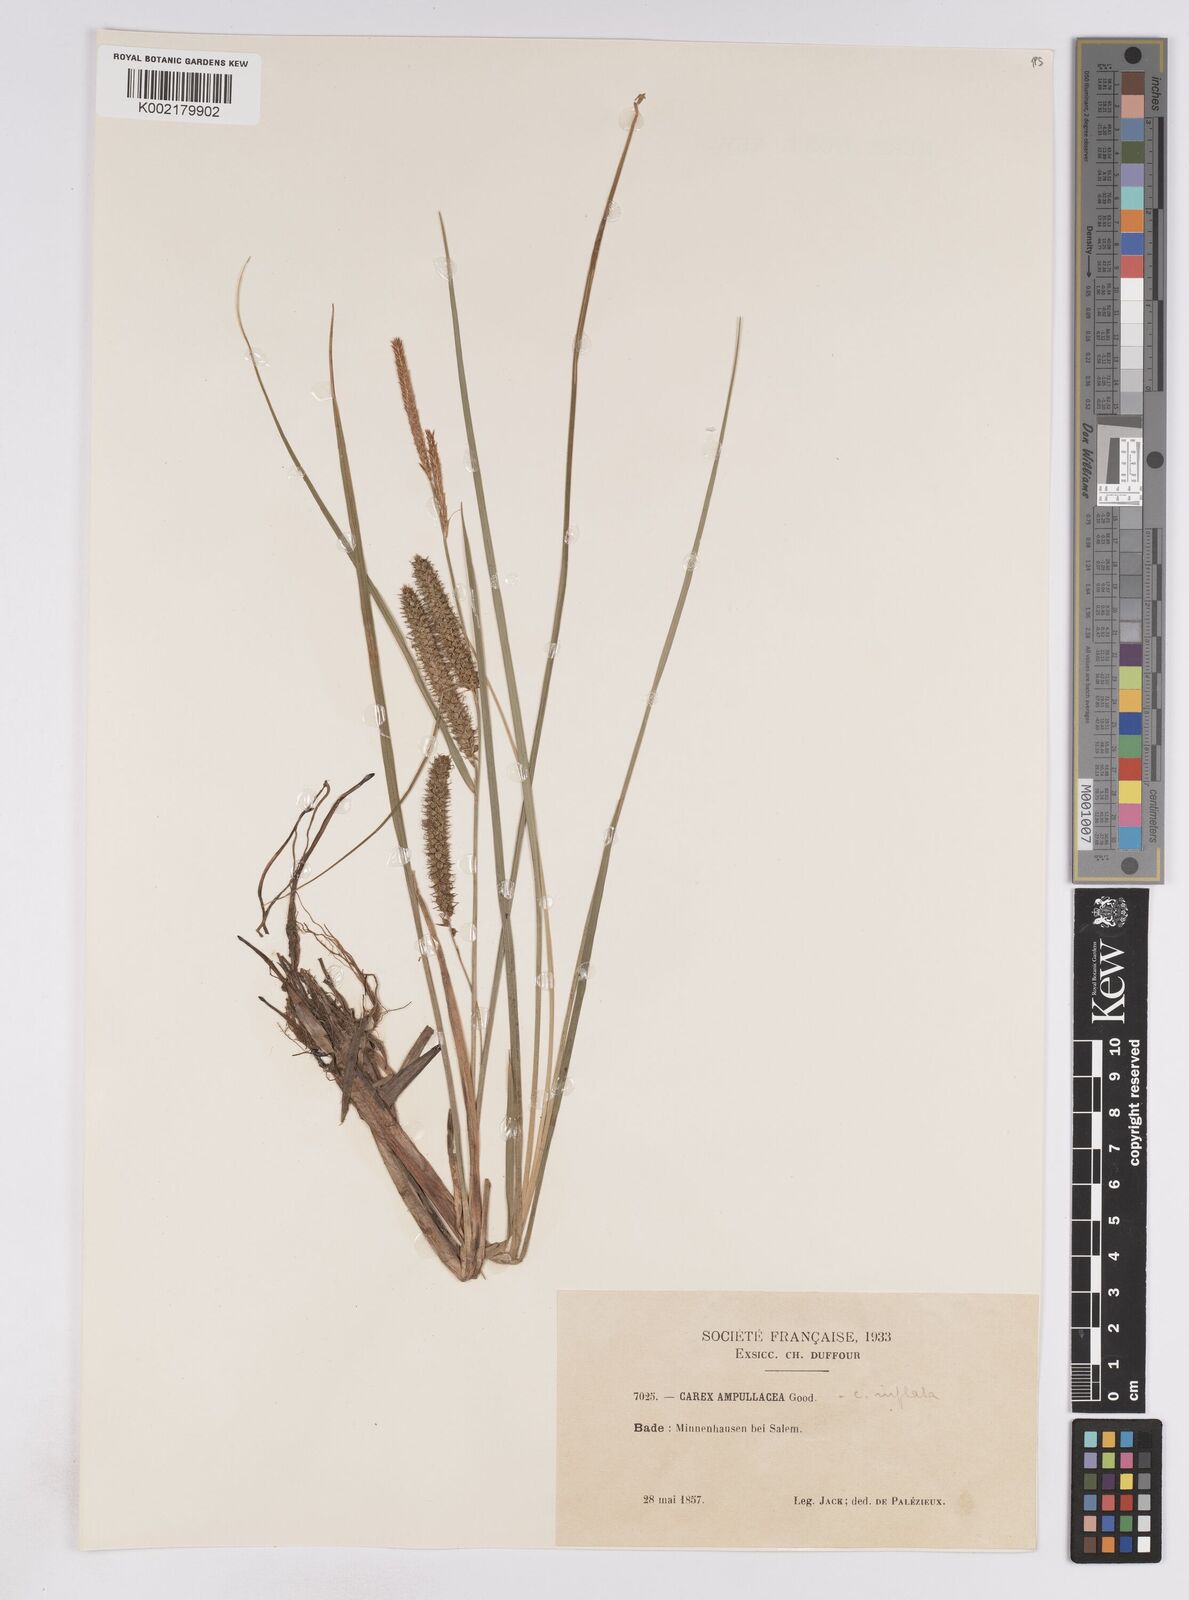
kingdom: Plantae
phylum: Tracheophyta
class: Liliopsida
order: Poales
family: Cyperaceae
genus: Carex
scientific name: Carex rostrata
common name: Bottle sedge
